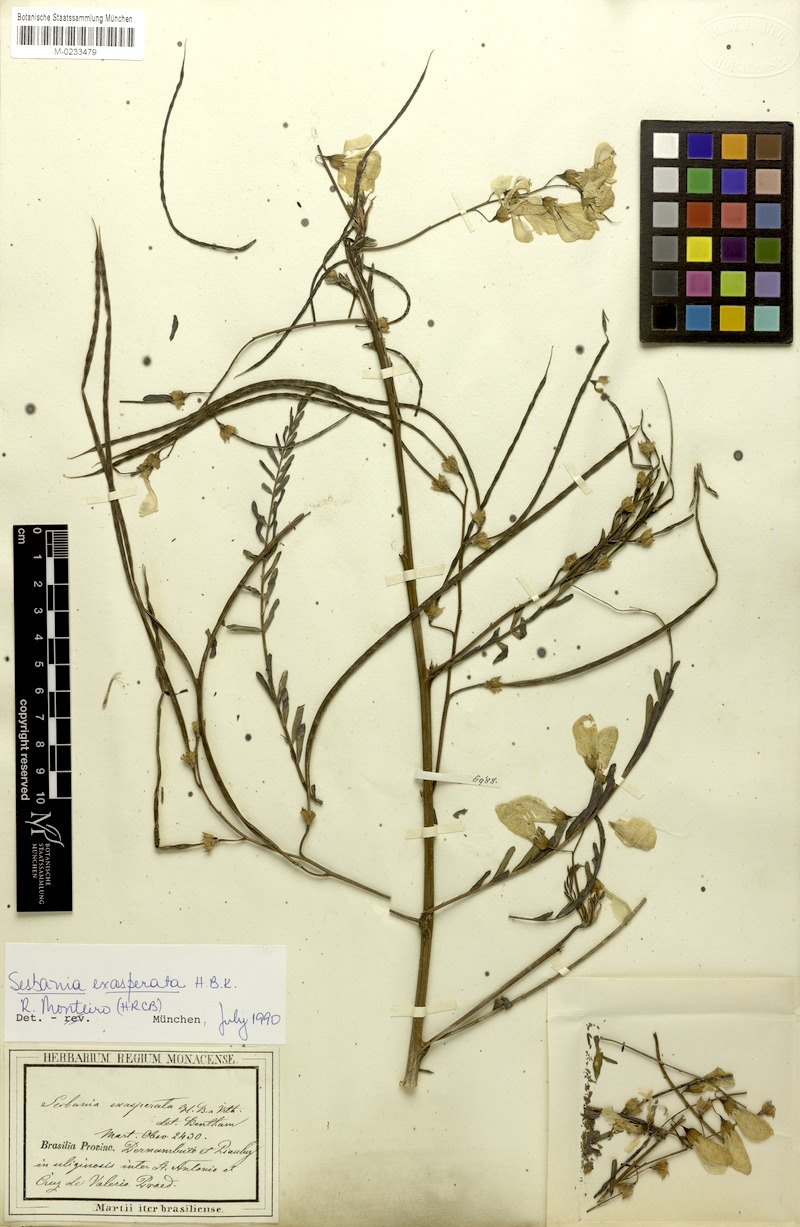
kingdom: Plantae
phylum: Tracheophyta
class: Magnoliopsida
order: Fabales
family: Fabaceae
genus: Sesbania
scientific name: Sesbania exasperata
